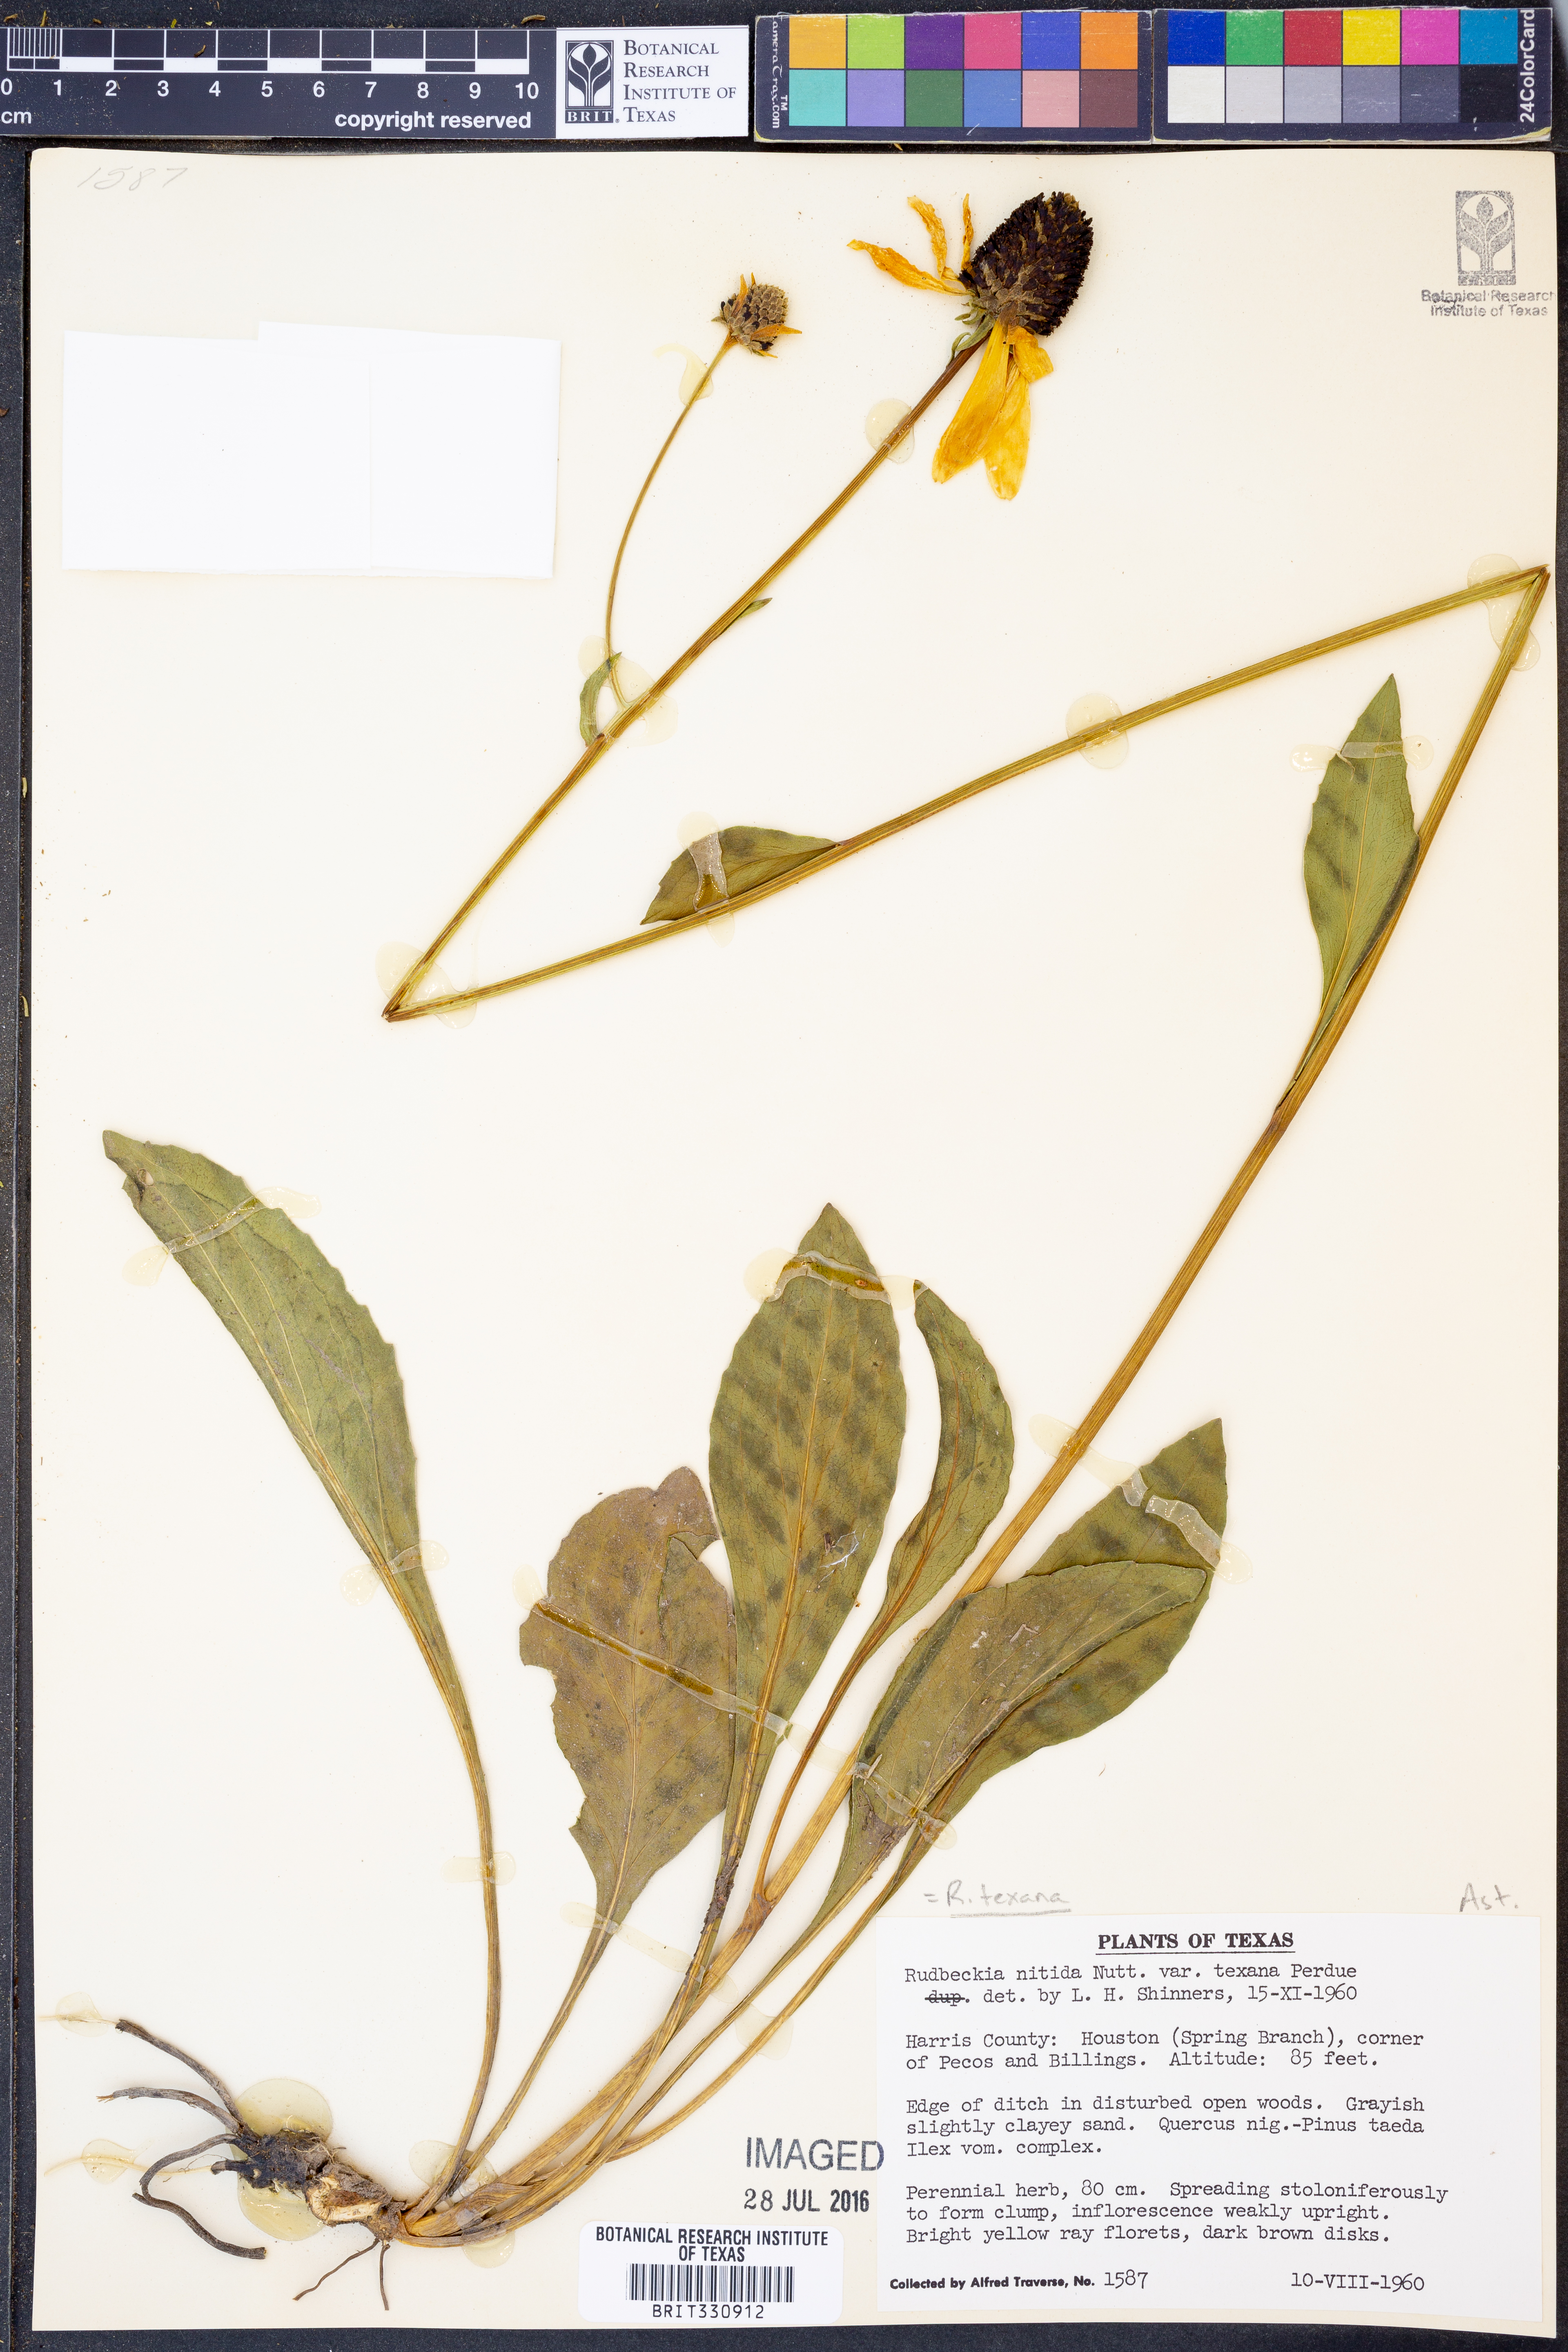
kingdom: Plantae
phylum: Tracheophyta
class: Magnoliopsida
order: Asterales
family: Asteraceae
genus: Rudbeckia
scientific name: Rudbeckia texana
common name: Texas coneflower
